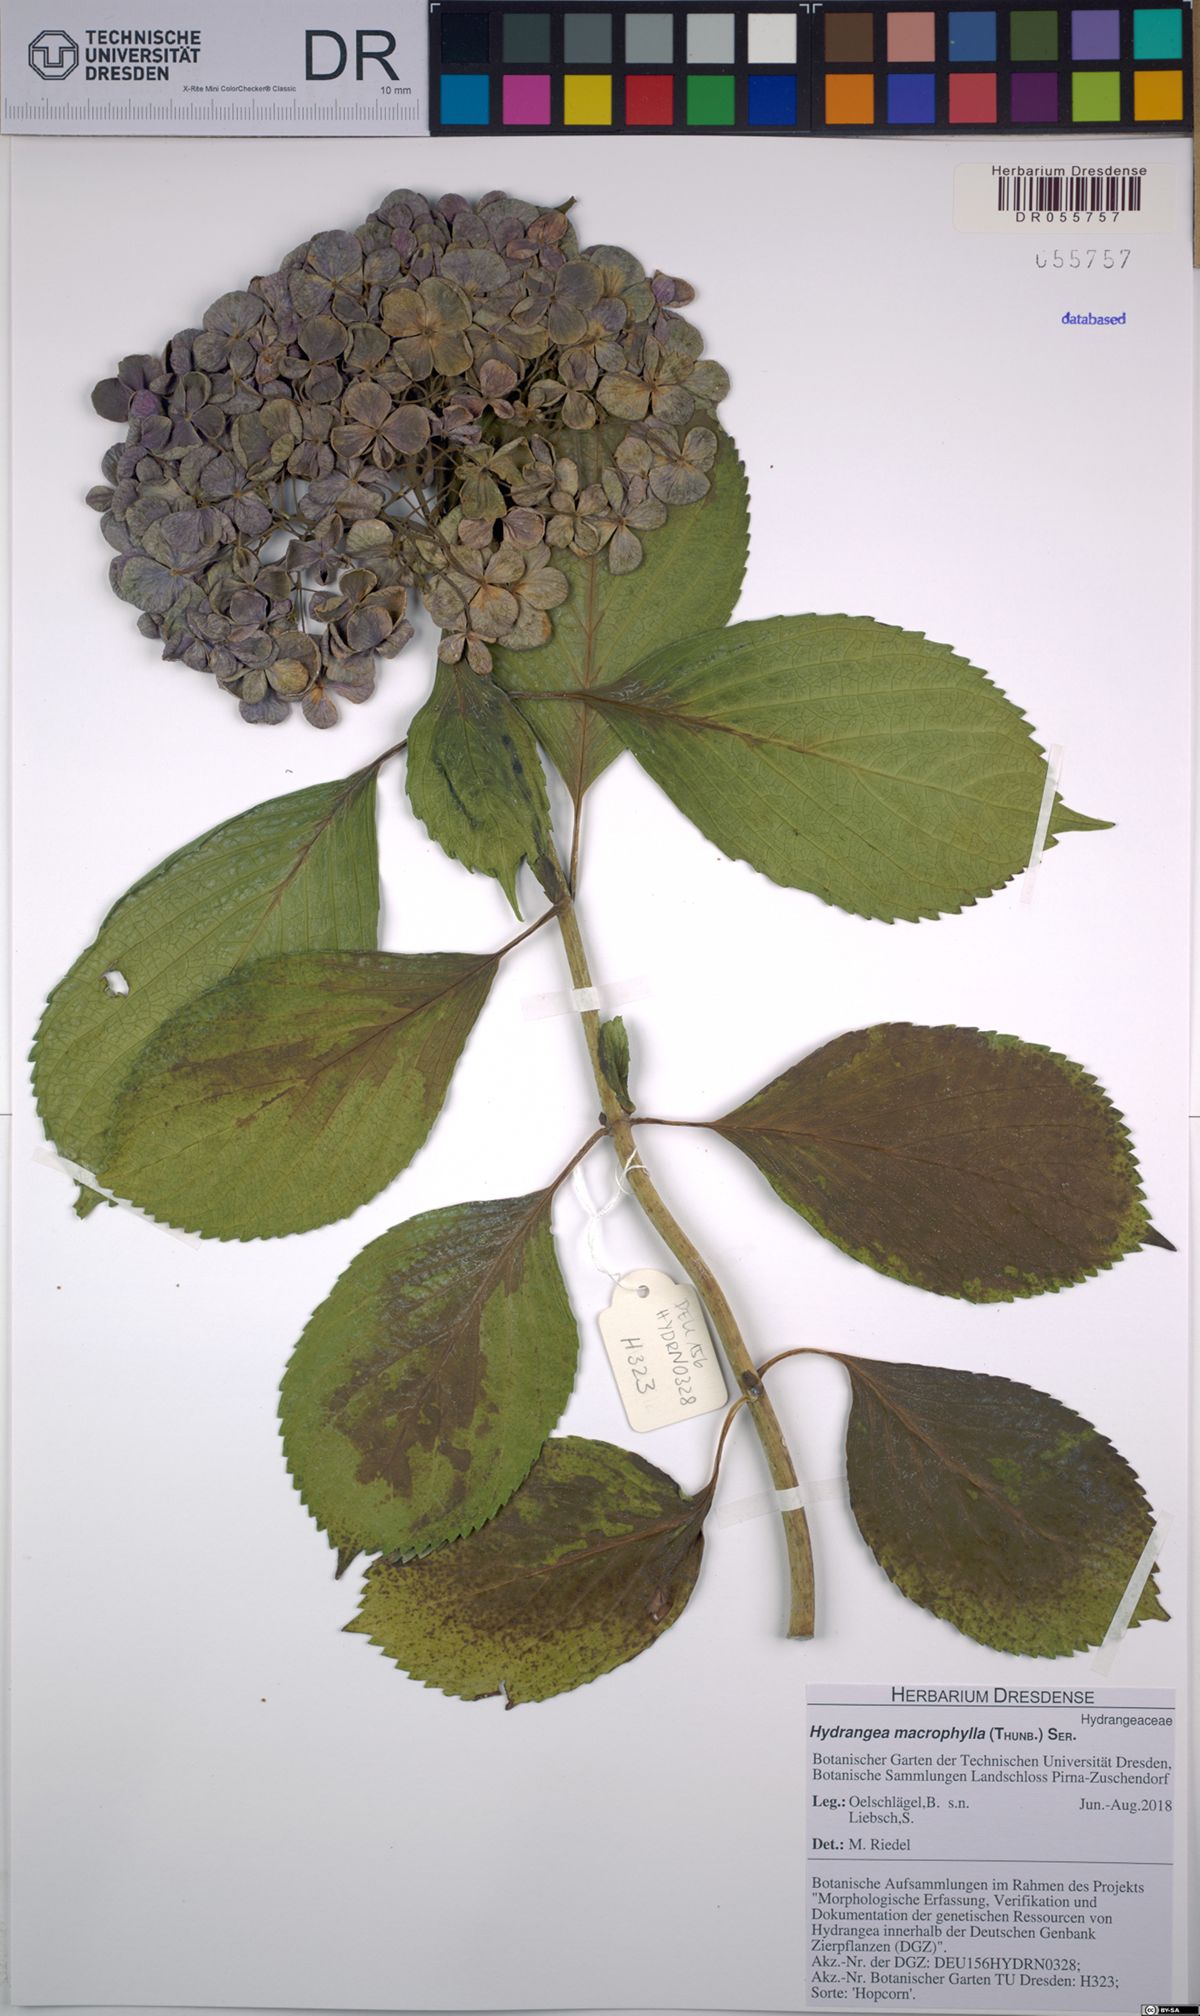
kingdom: Plantae
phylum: Tracheophyta
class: Magnoliopsida
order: Cornales
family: Hydrangeaceae
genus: Hydrangea
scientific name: Hydrangea macrophylla
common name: Hydrangea
